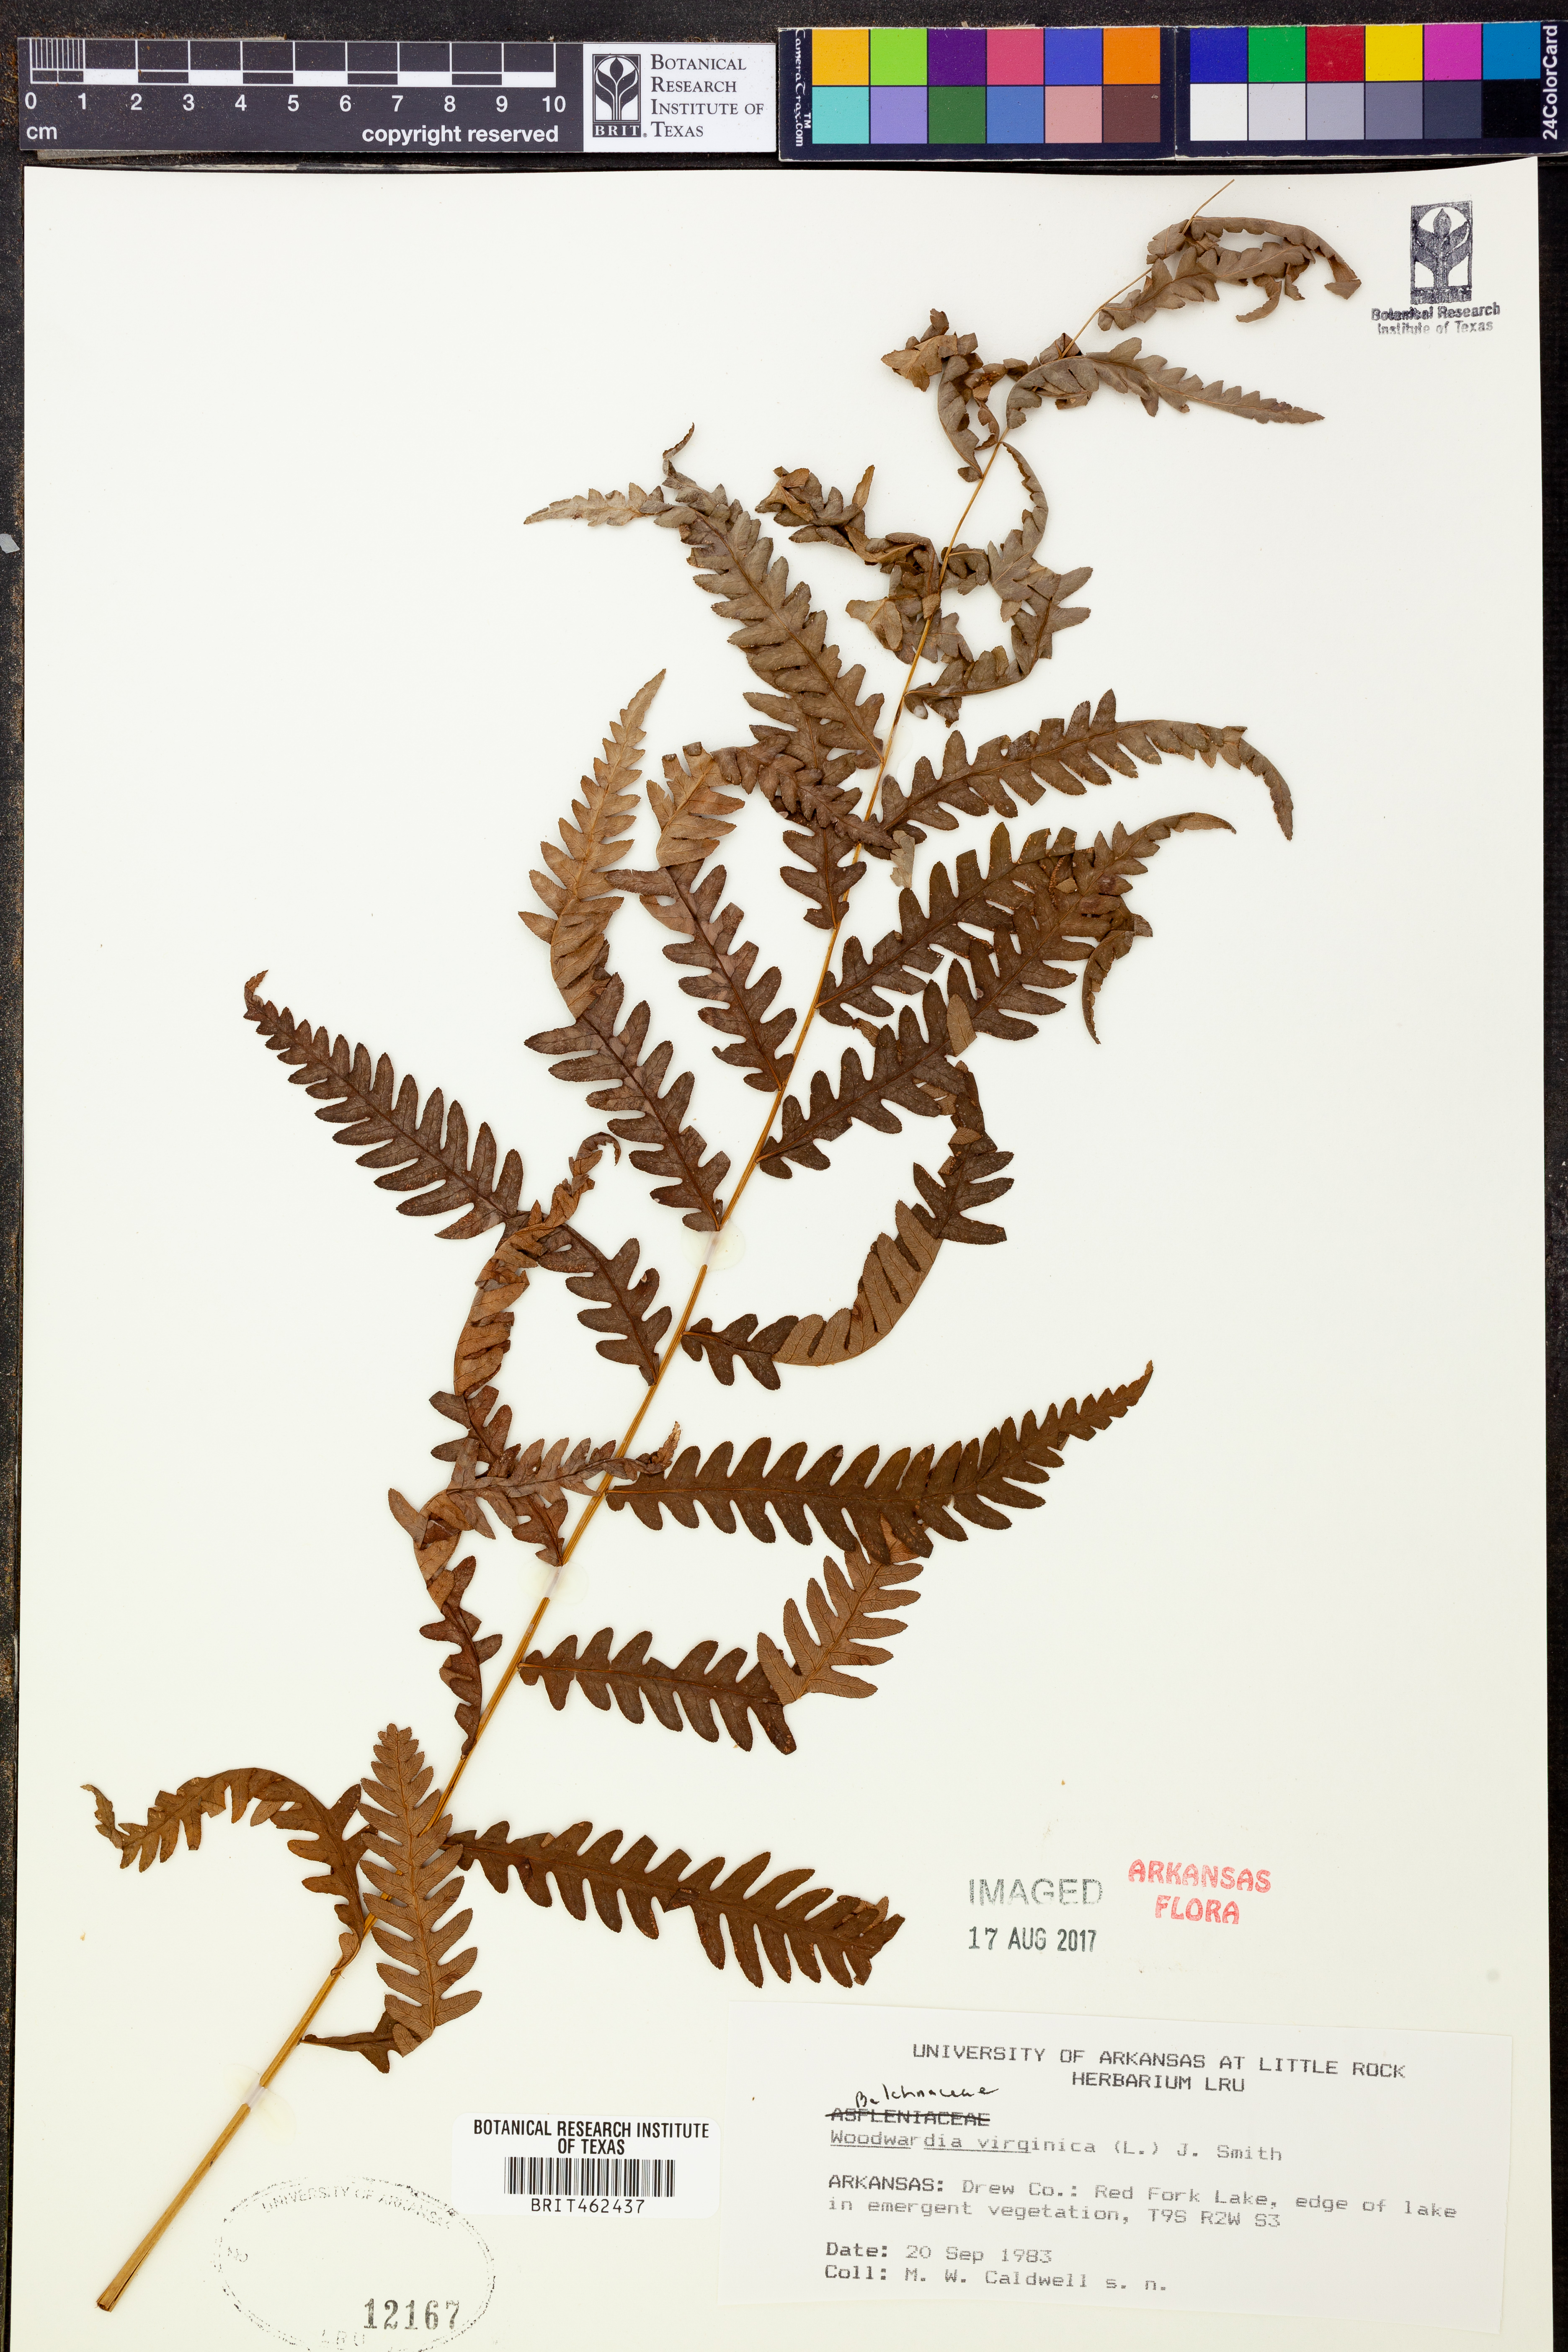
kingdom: Plantae
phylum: Tracheophyta
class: Polypodiopsida
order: Polypodiales
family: Blechnaceae
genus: Anchistea
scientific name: Anchistea virginica
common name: Virginia chain fern
